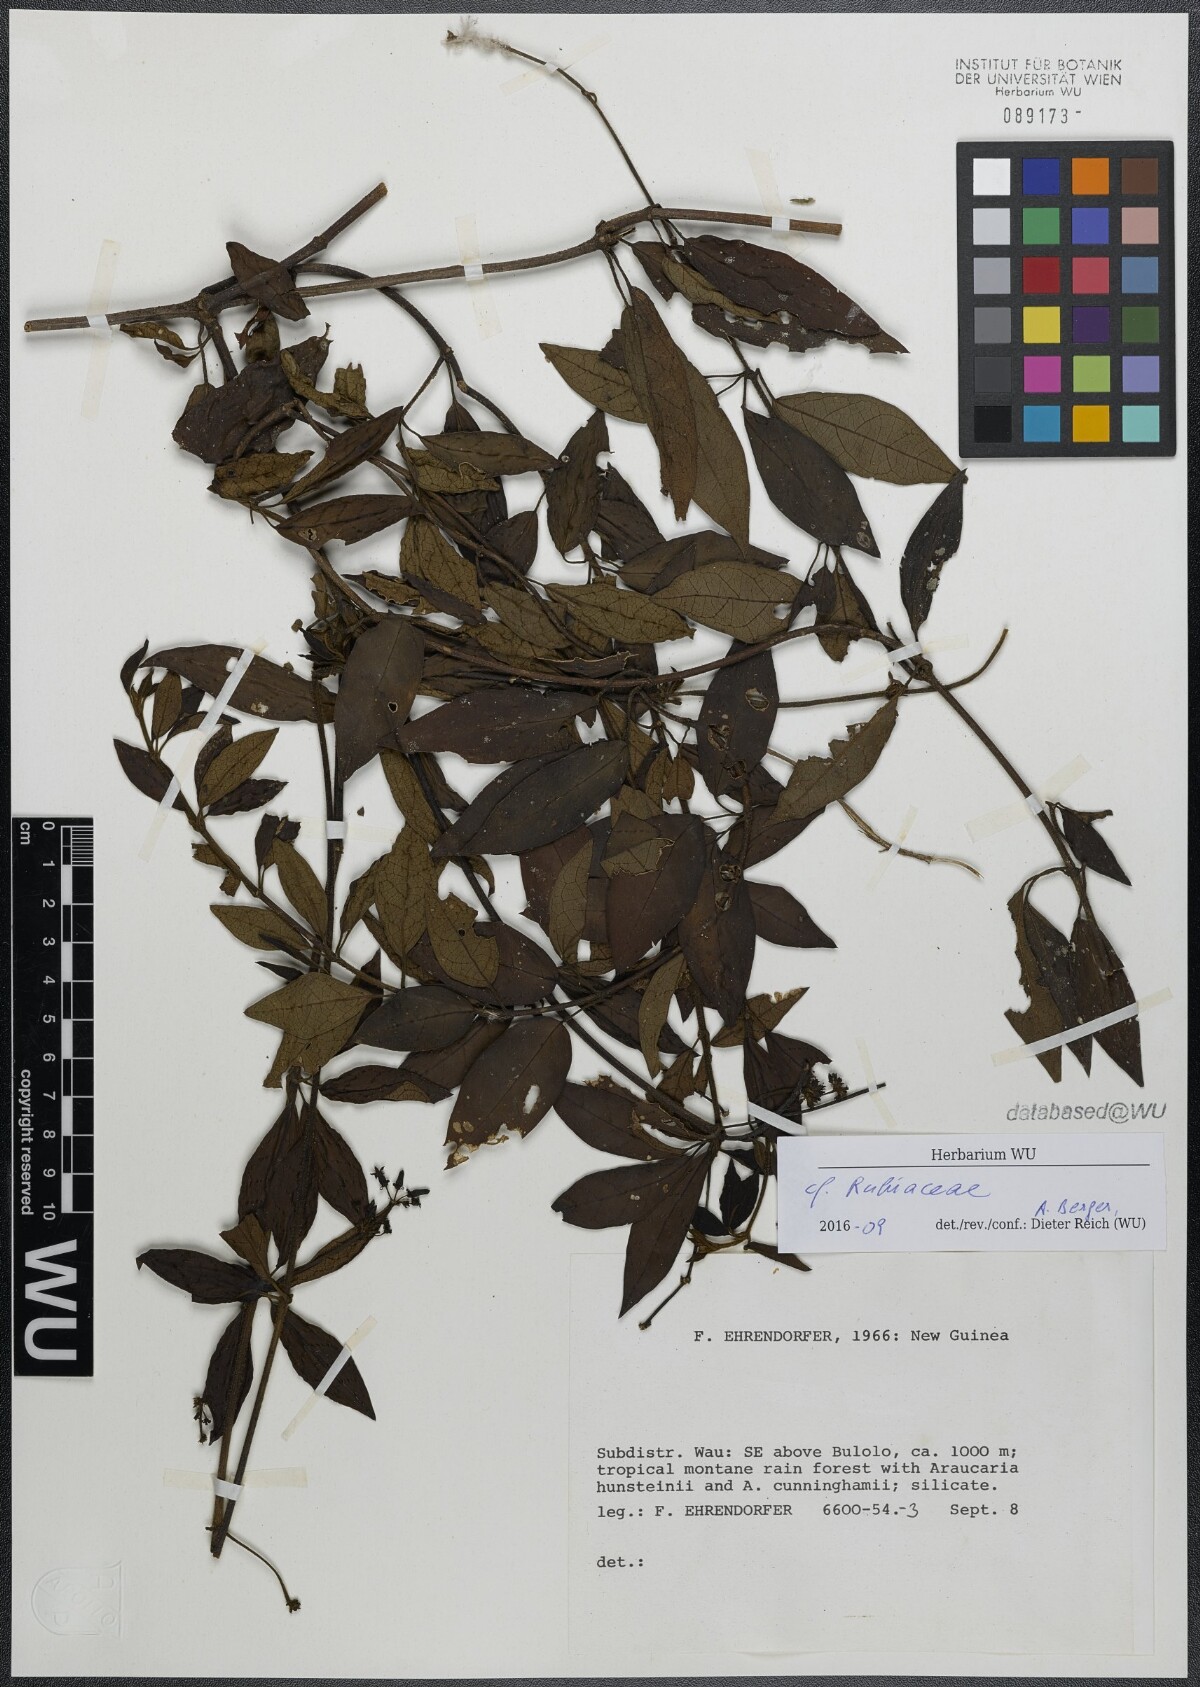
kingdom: Plantae
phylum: Tracheophyta
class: Magnoliopsida
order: Gentianales
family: Rubiaceae
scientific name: Rubiaceae
